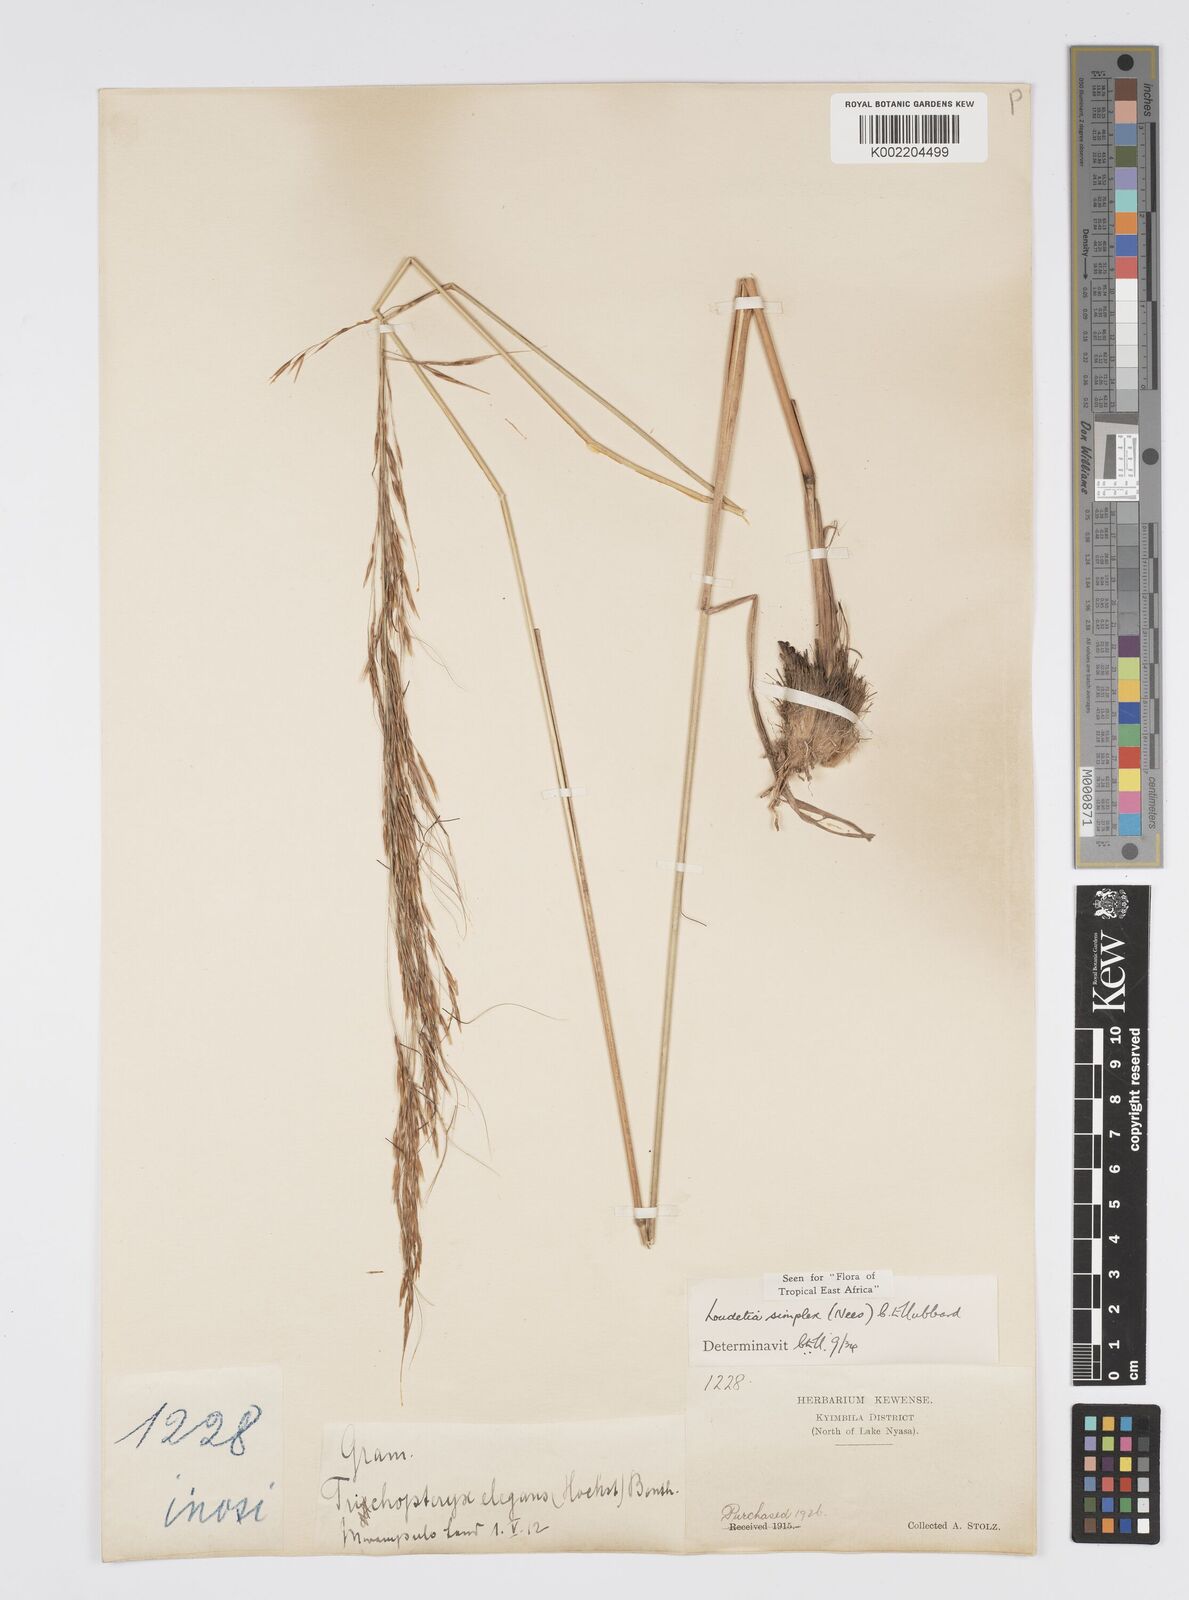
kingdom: Plantae
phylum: Tracheophyta
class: Liliopsida
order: Poales
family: Poaceae
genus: Loudetia
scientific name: Loudetia simplex
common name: Common russet grass
